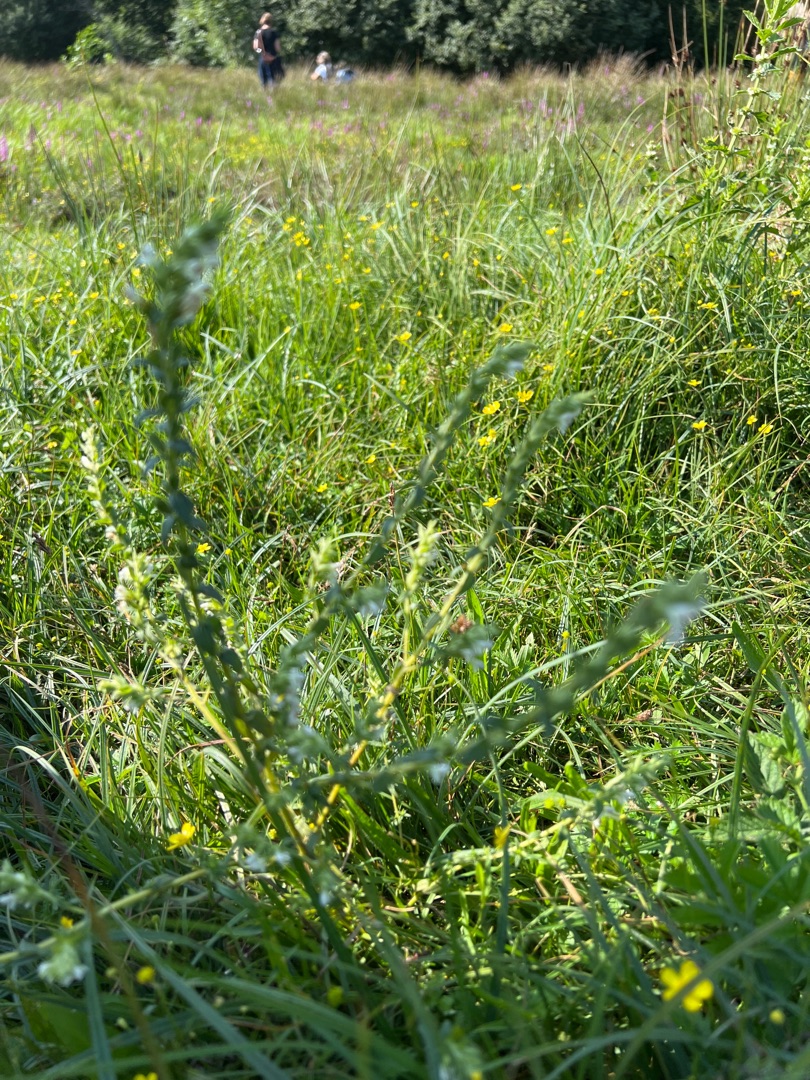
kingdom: Plantae
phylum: Tracheophyta
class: Magnoliopsida
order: Lamiales
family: Orobanchaceae
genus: Odontites
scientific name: Odontites
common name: Rødtopslægten
